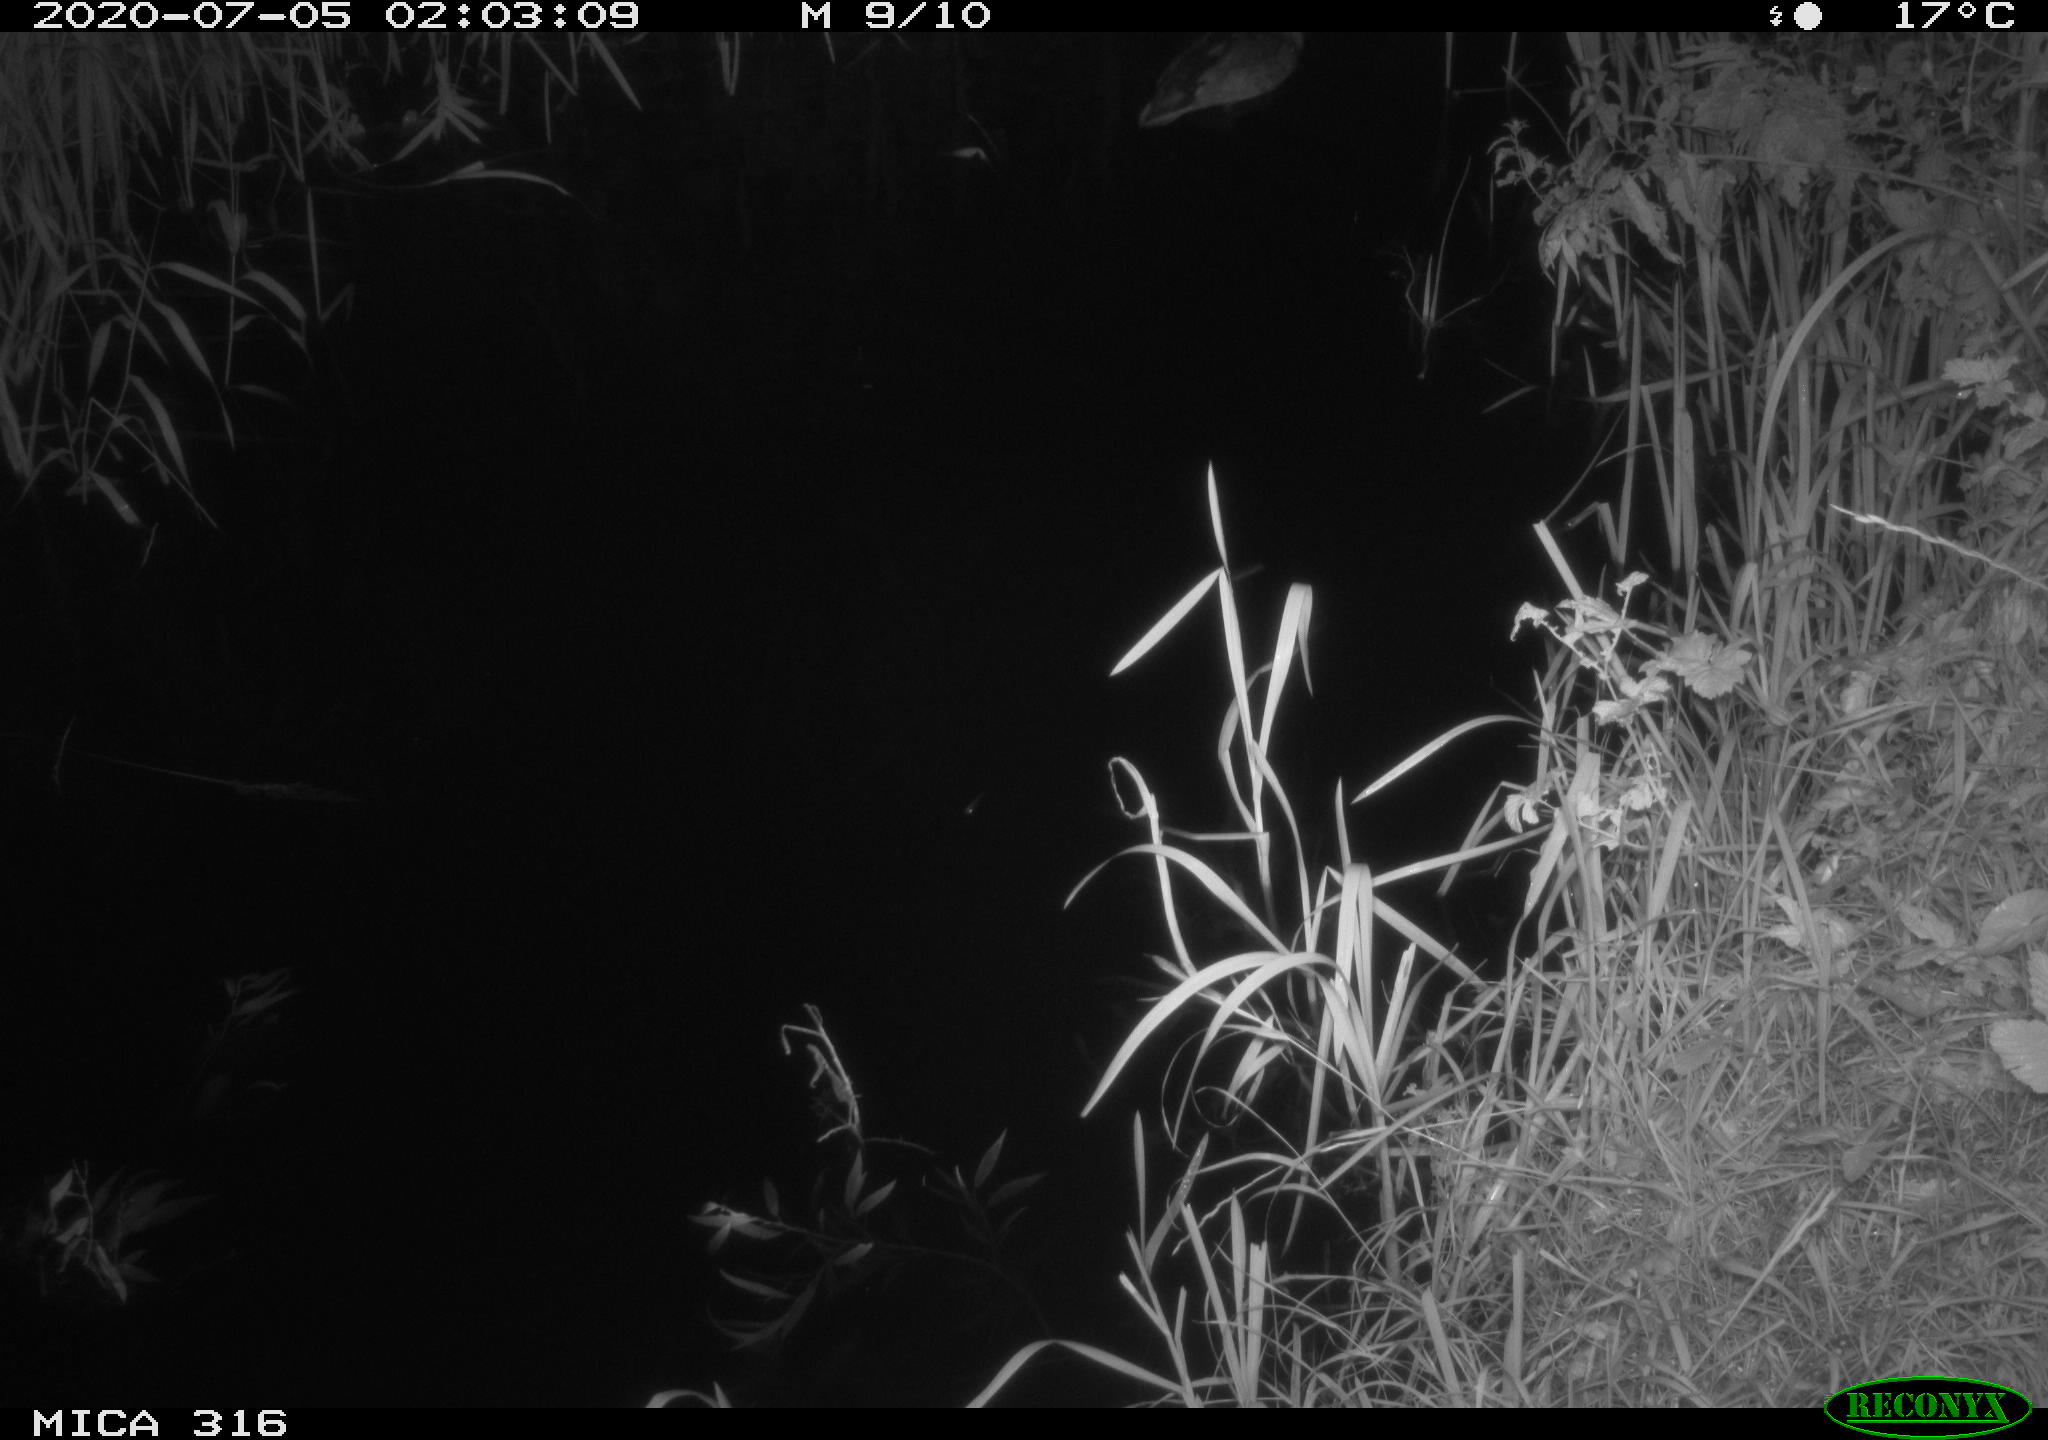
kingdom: Animalia
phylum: Chordata
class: Aves
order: Anseriformes
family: Anatidae
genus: Anas
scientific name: Anas platyrhynchos
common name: Mallard
